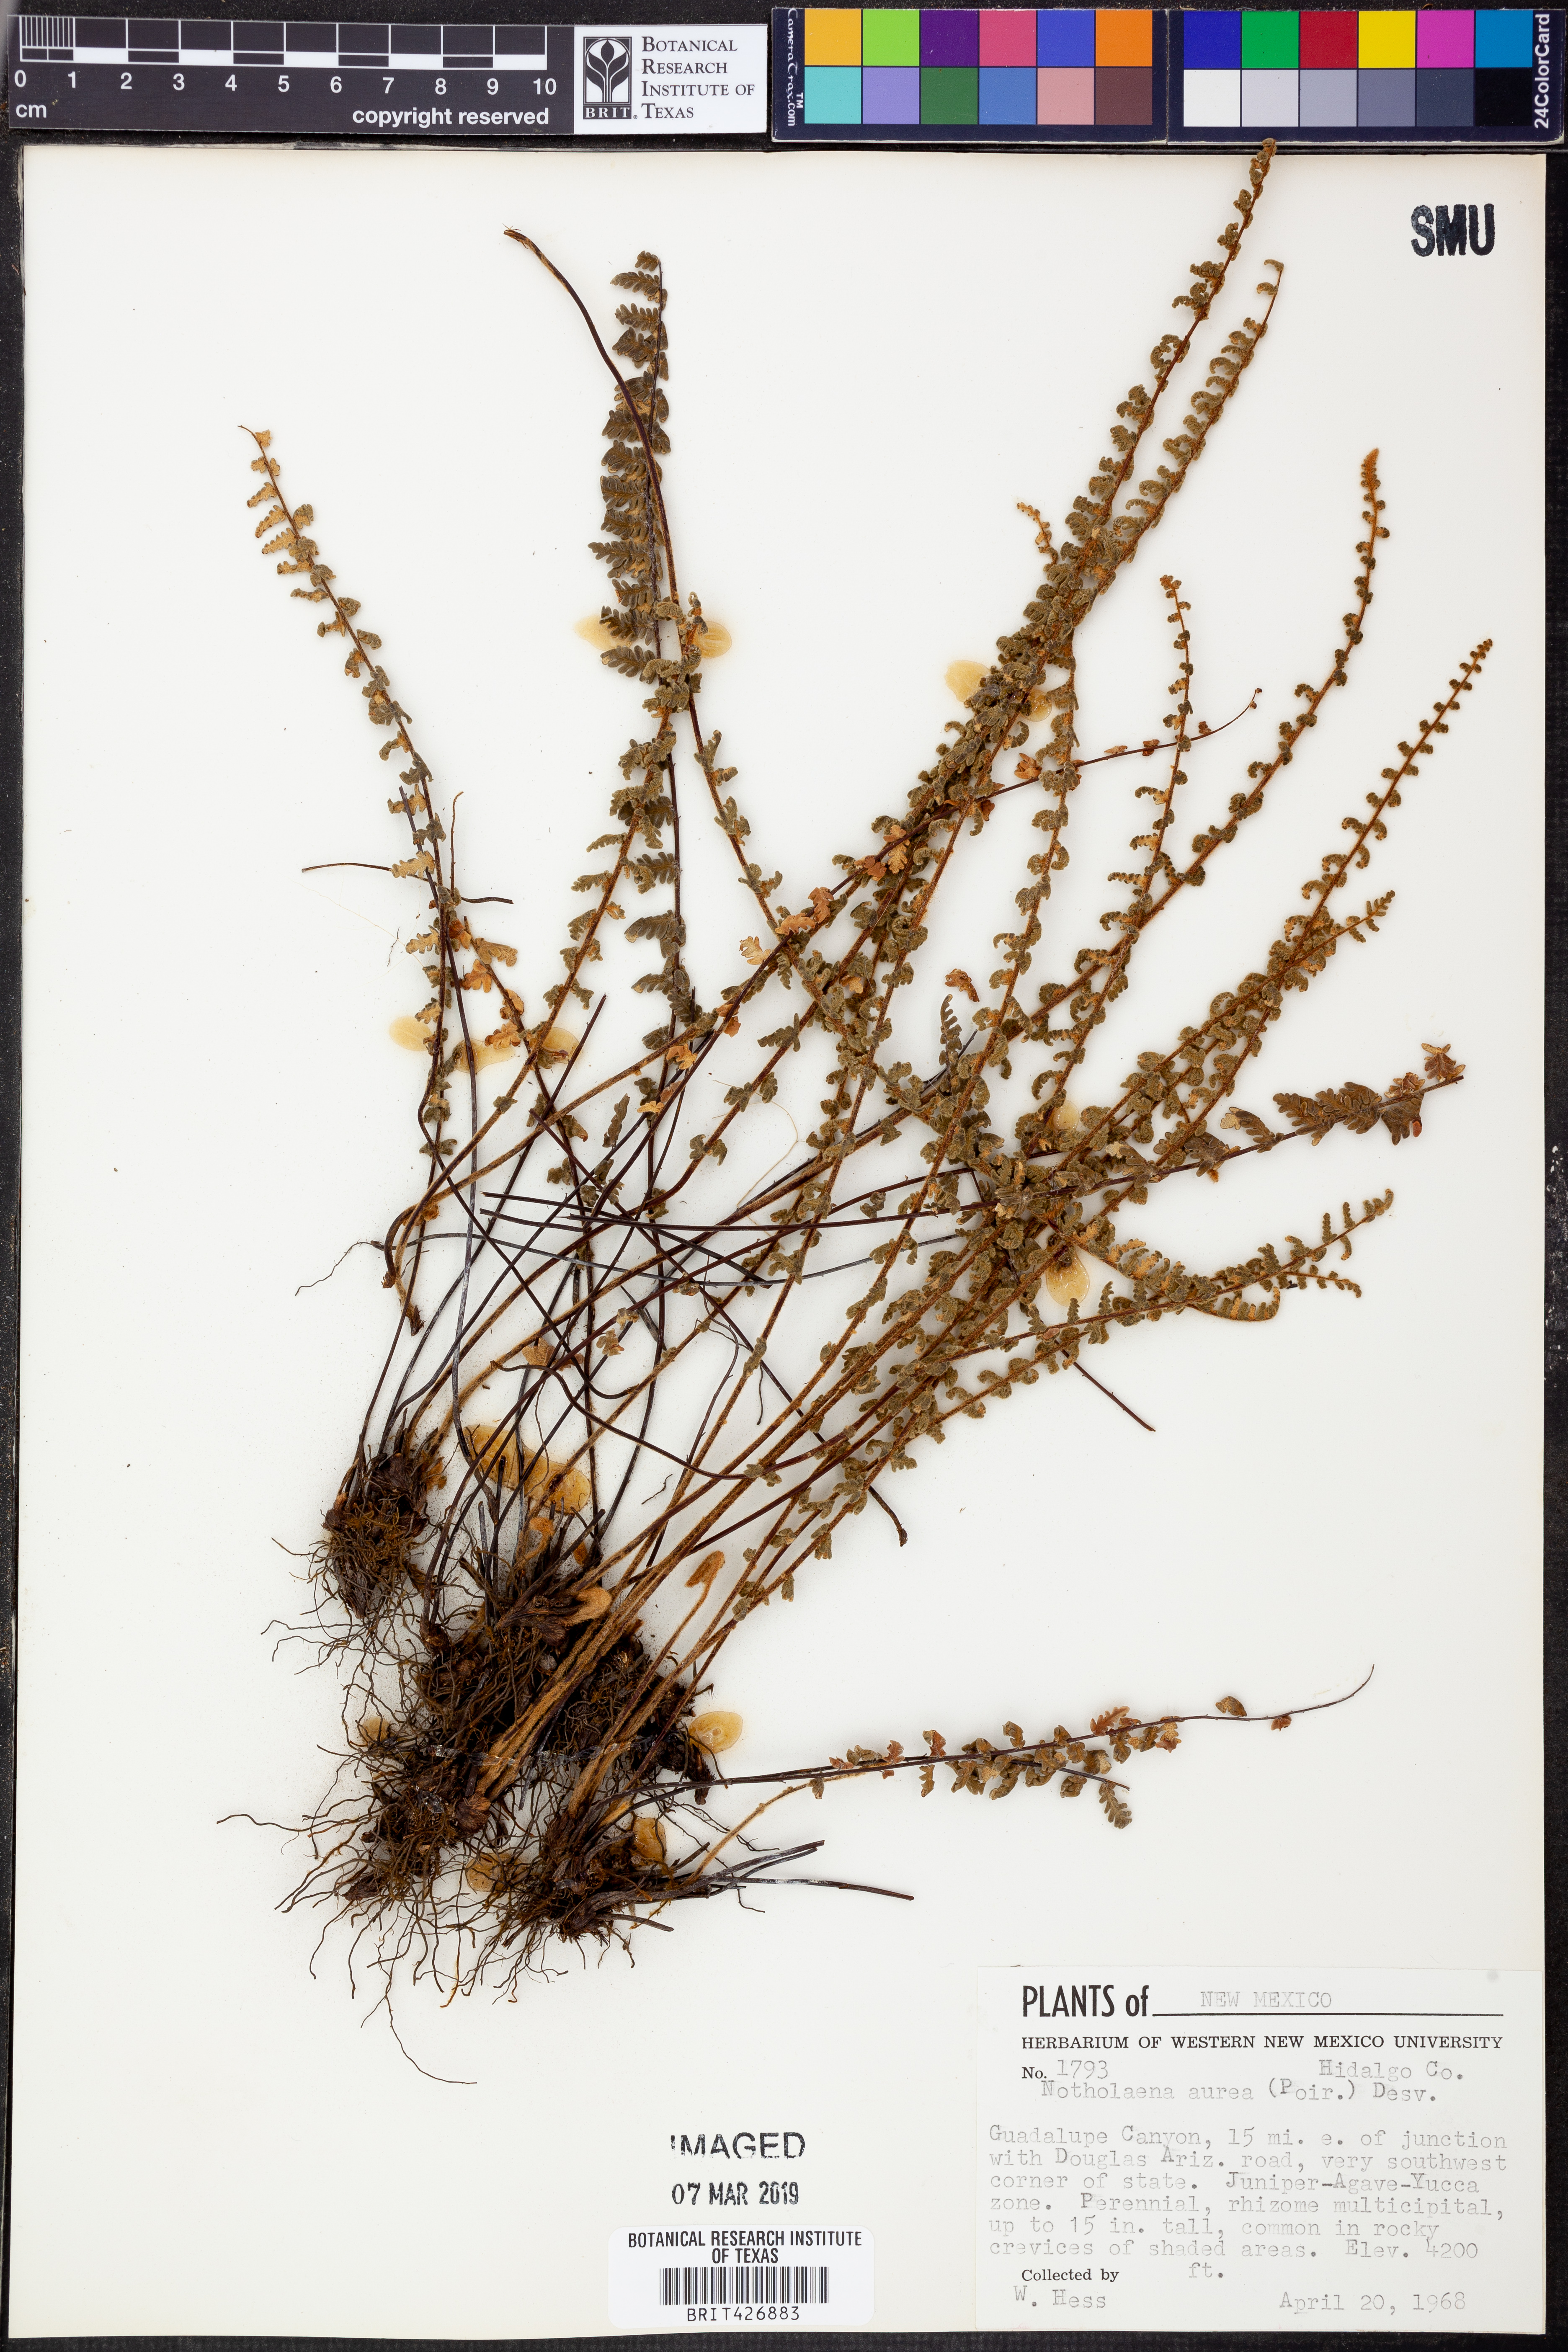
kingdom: Plantae
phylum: Tracheophyta
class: Polypodiopsida
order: Polypodiales
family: Pteridaceae
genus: Myriopteris
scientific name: Myriopteris aurea
